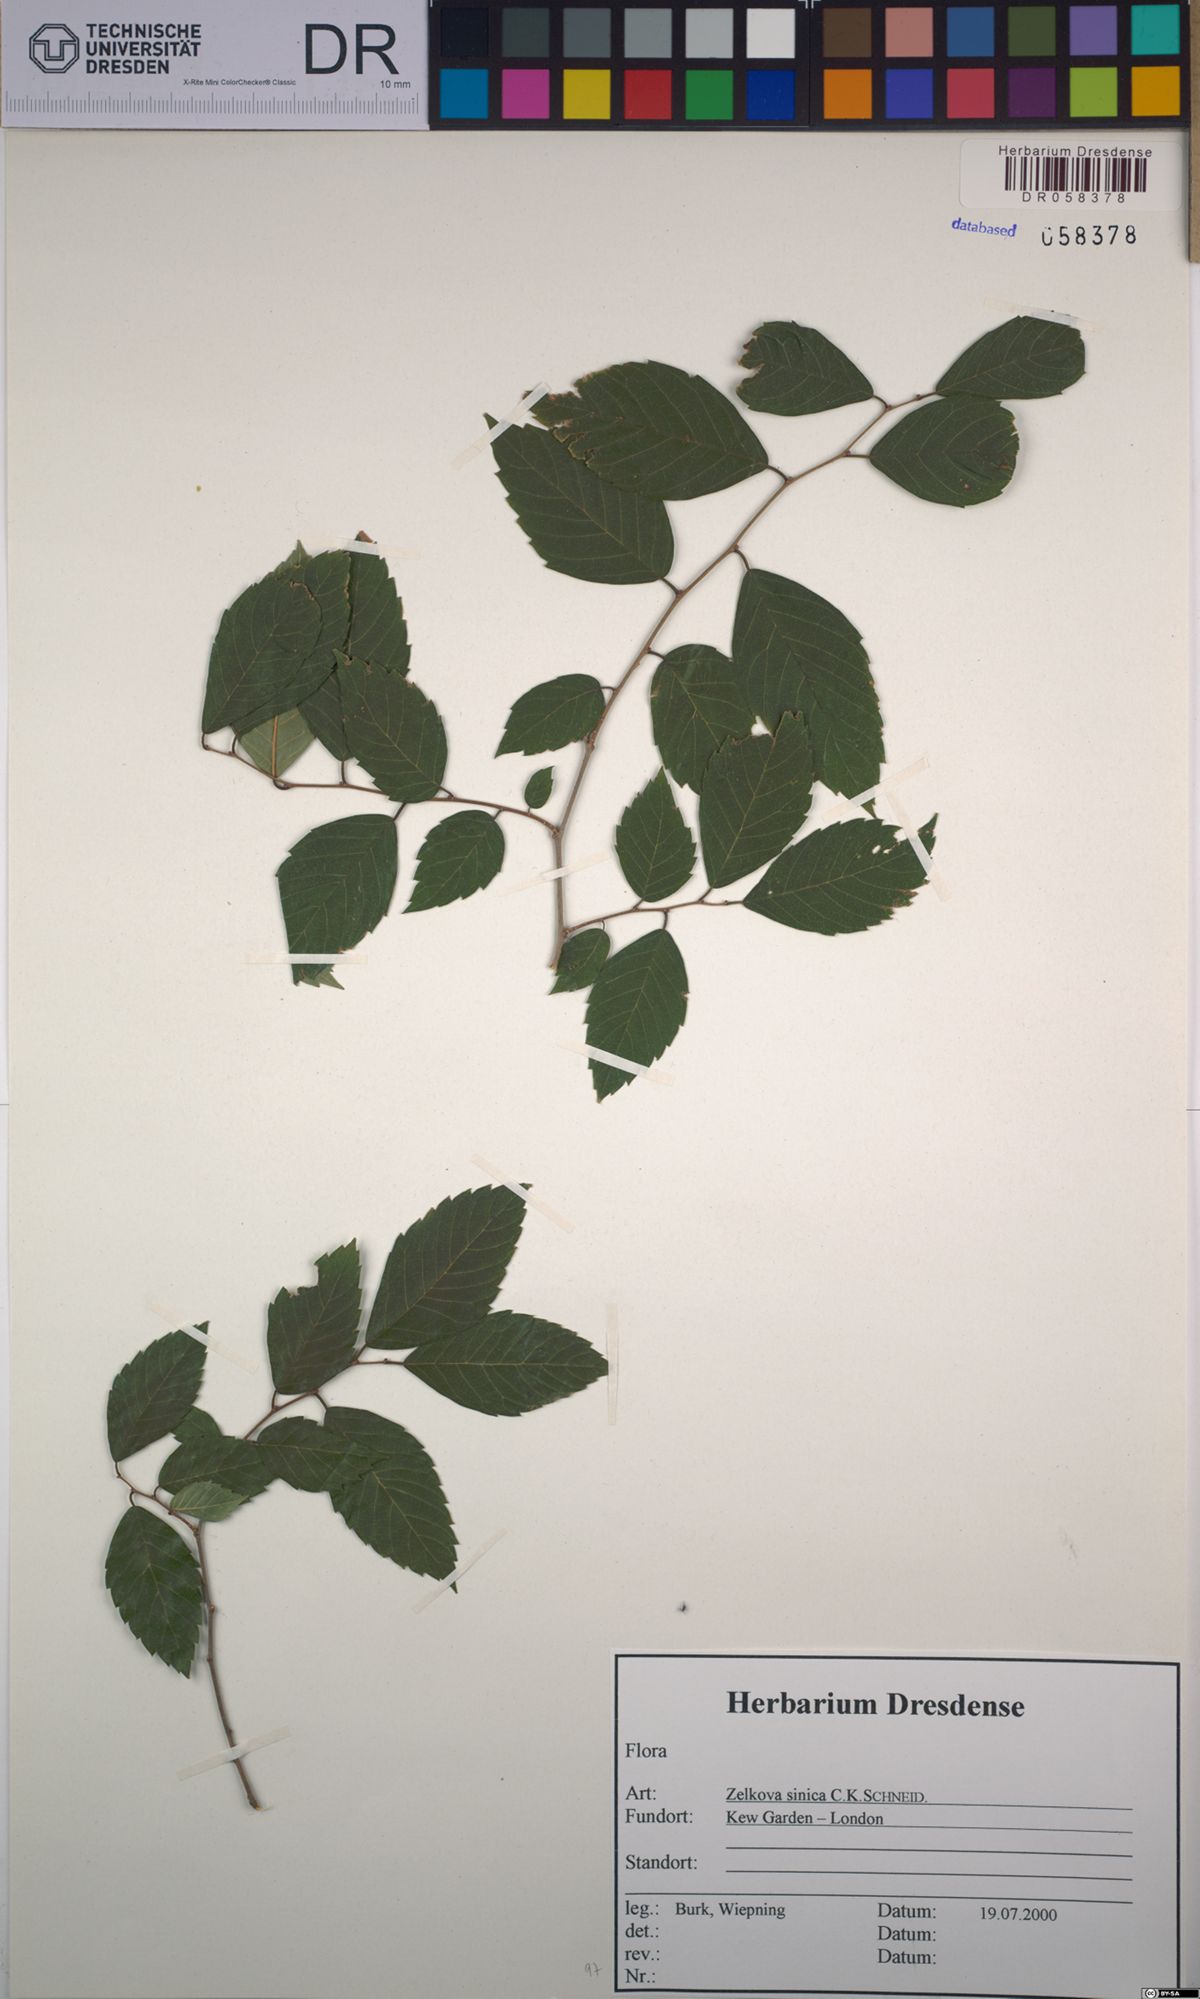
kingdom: Plantae
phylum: Tracheophyta
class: Magnoliopsida
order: Rosales
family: Ulmaceae
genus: Zelkova
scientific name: Zelkova sinica
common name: Chinese zelkova
